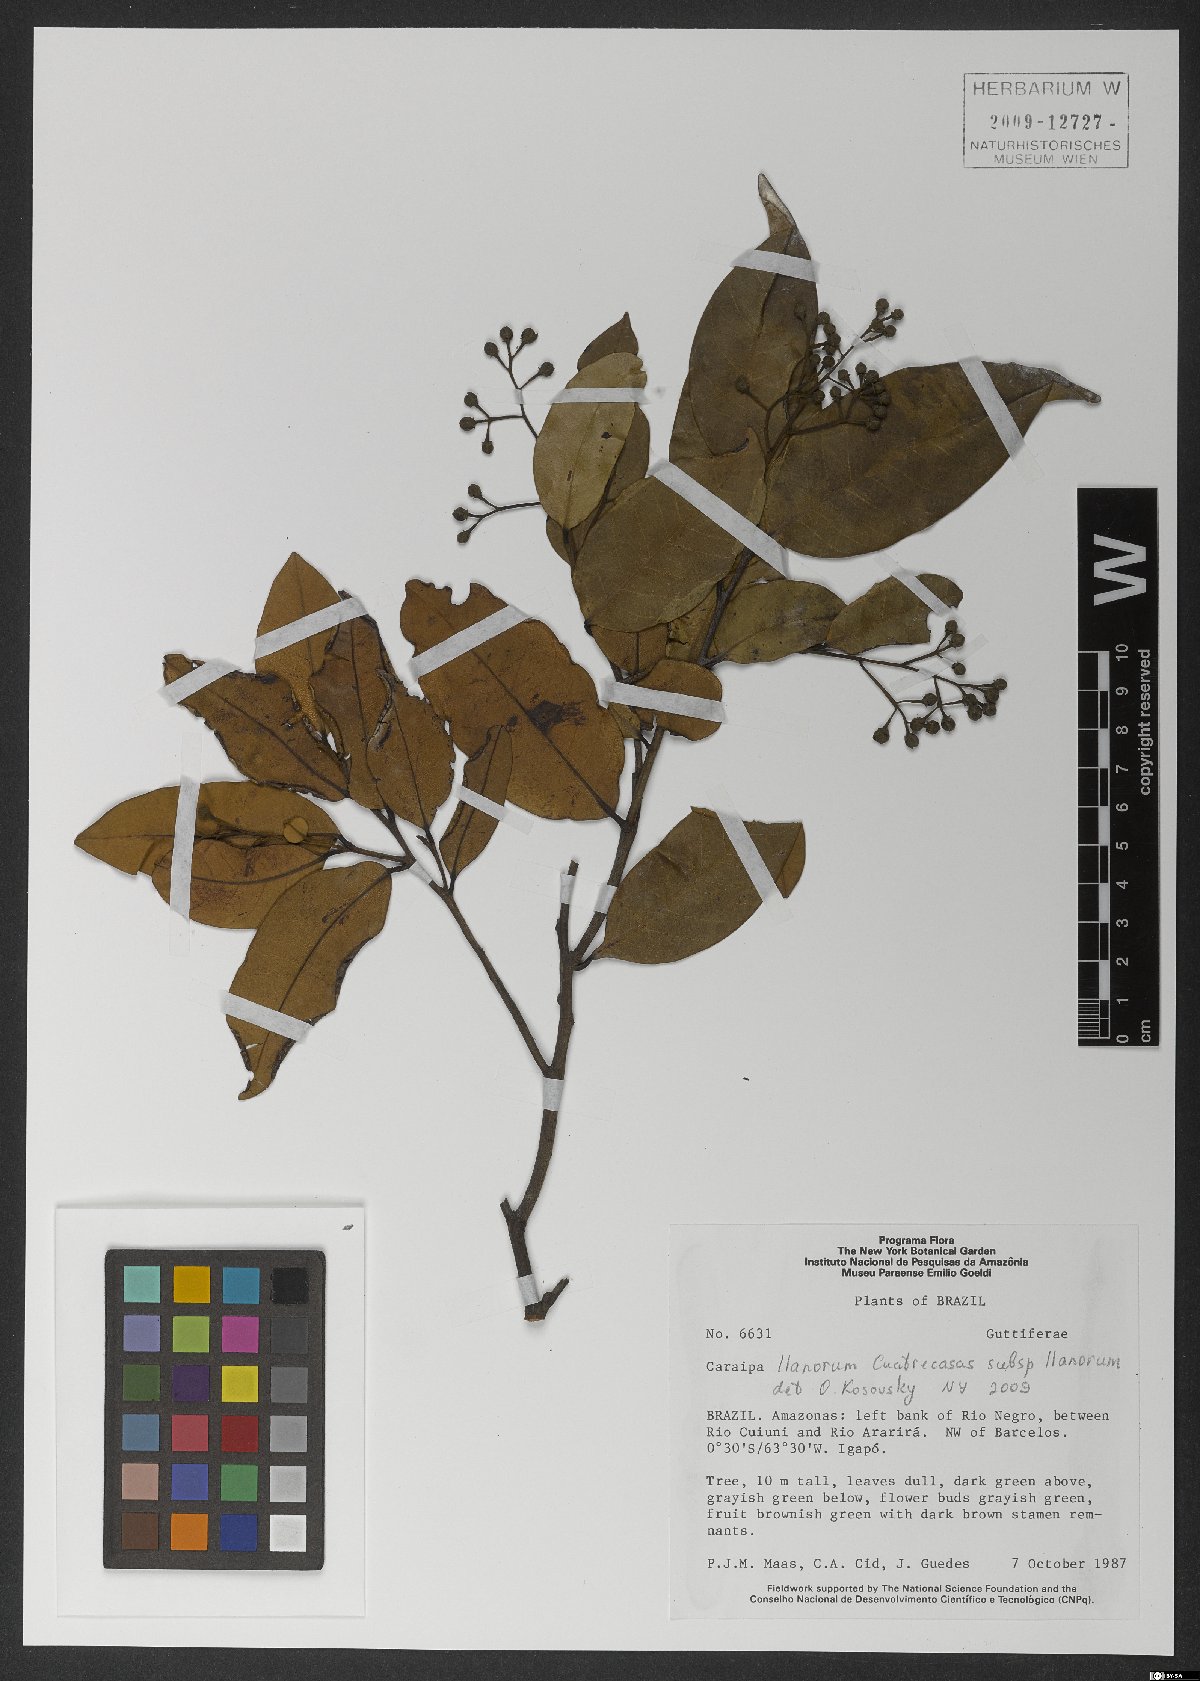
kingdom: Plantae
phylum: Tracheophyta
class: Magnoliopsida
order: Malpighiales
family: Calophyllaceae
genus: Caraipa
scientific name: Caraipa llanorum
